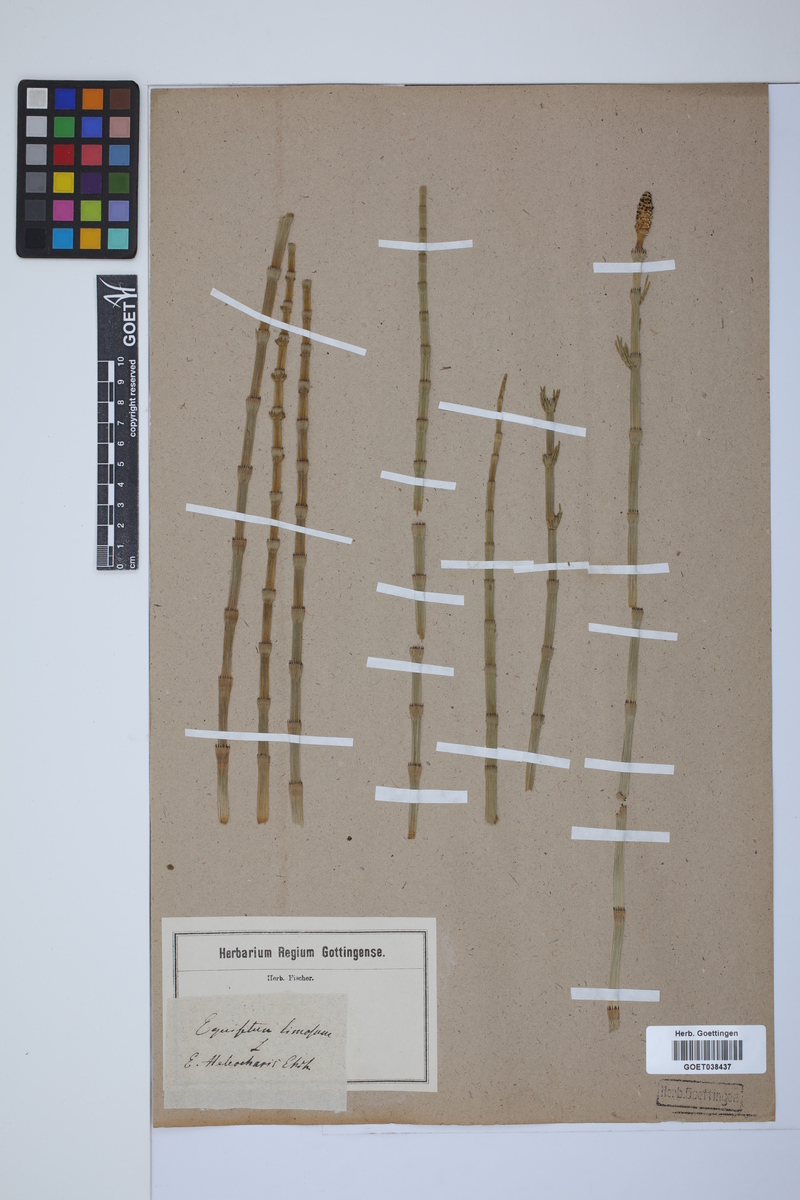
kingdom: Plantae
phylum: Tracheophyta
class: Polypodiopsida
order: Equisetales
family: Equisetaceae
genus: Equisetum
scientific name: Equisetum fluviatile
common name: Water horsetail
